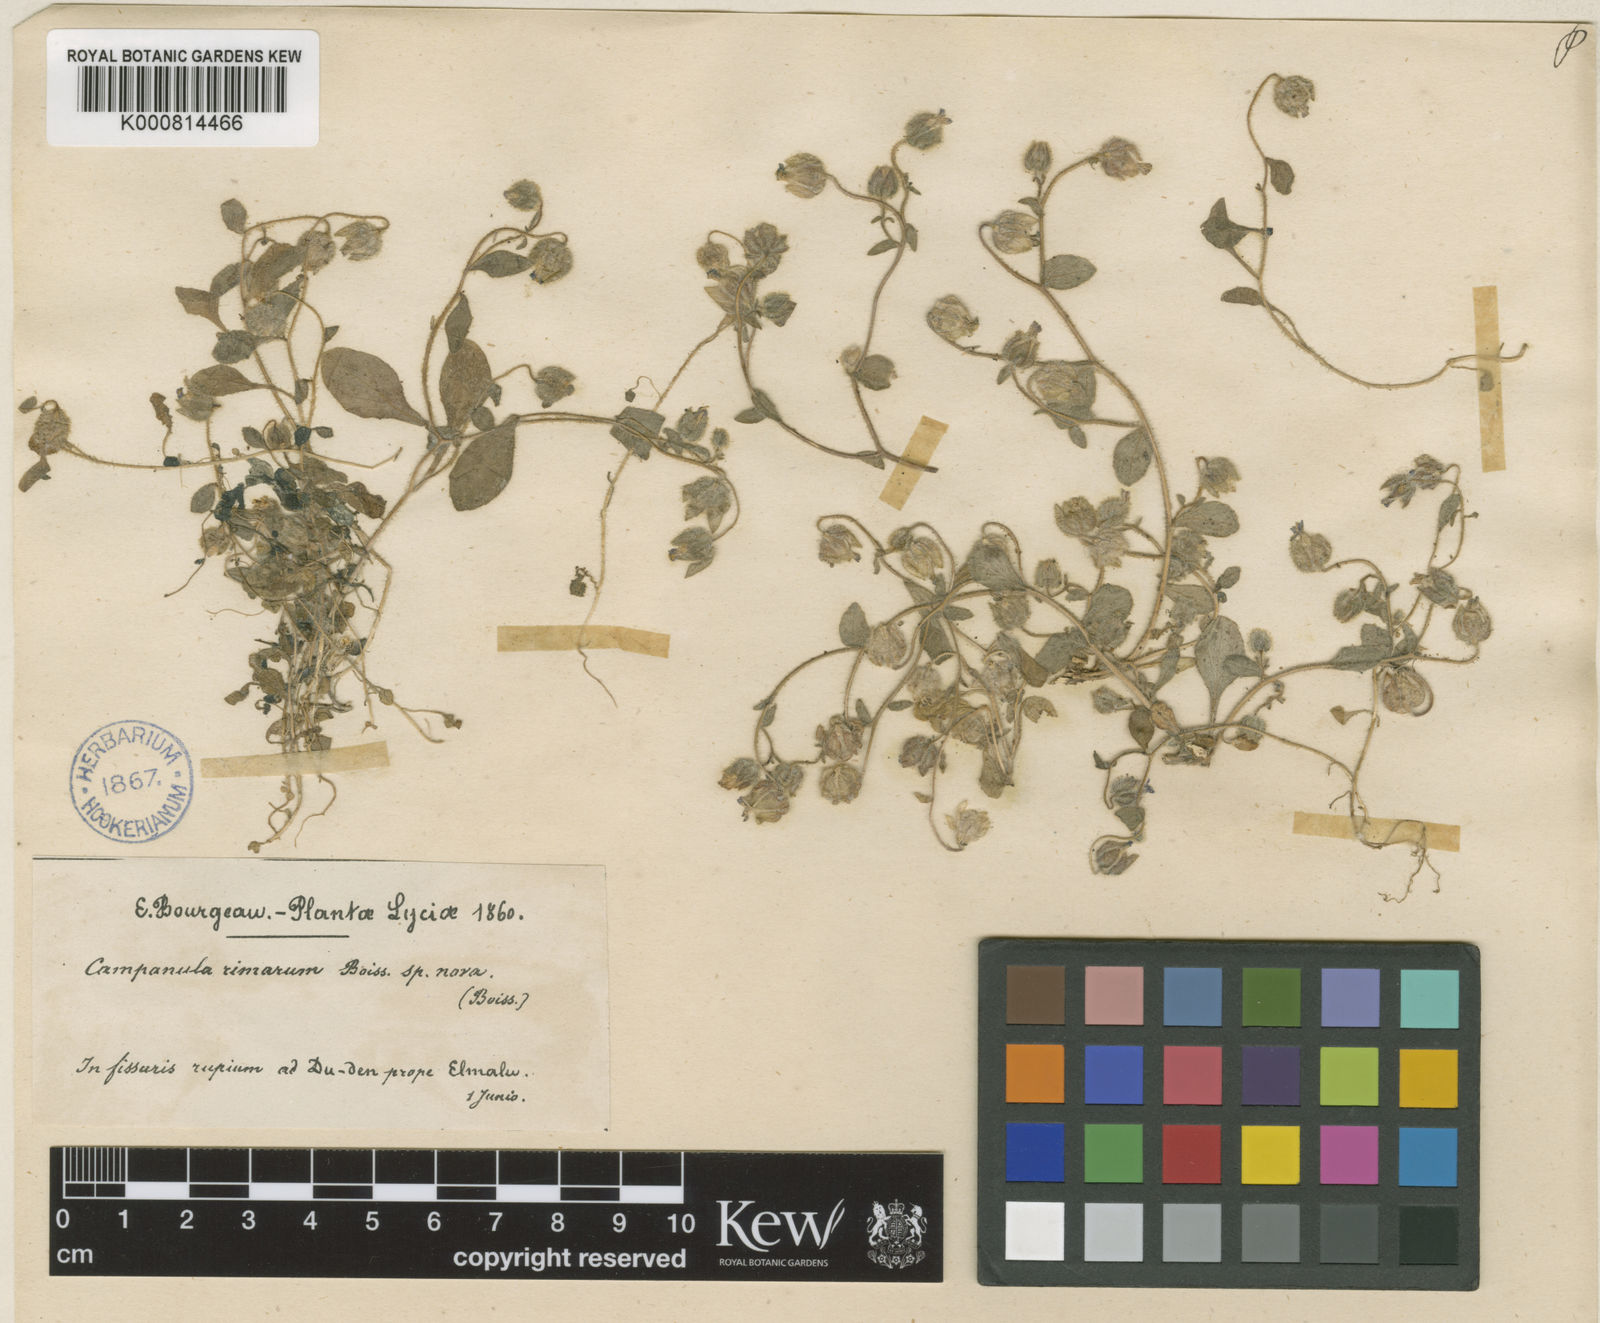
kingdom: Plantae
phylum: Tracheophyta
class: Magnoliopsida
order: Asterales
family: Campanulaceae
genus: Campanula
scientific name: Campanula rimarum
